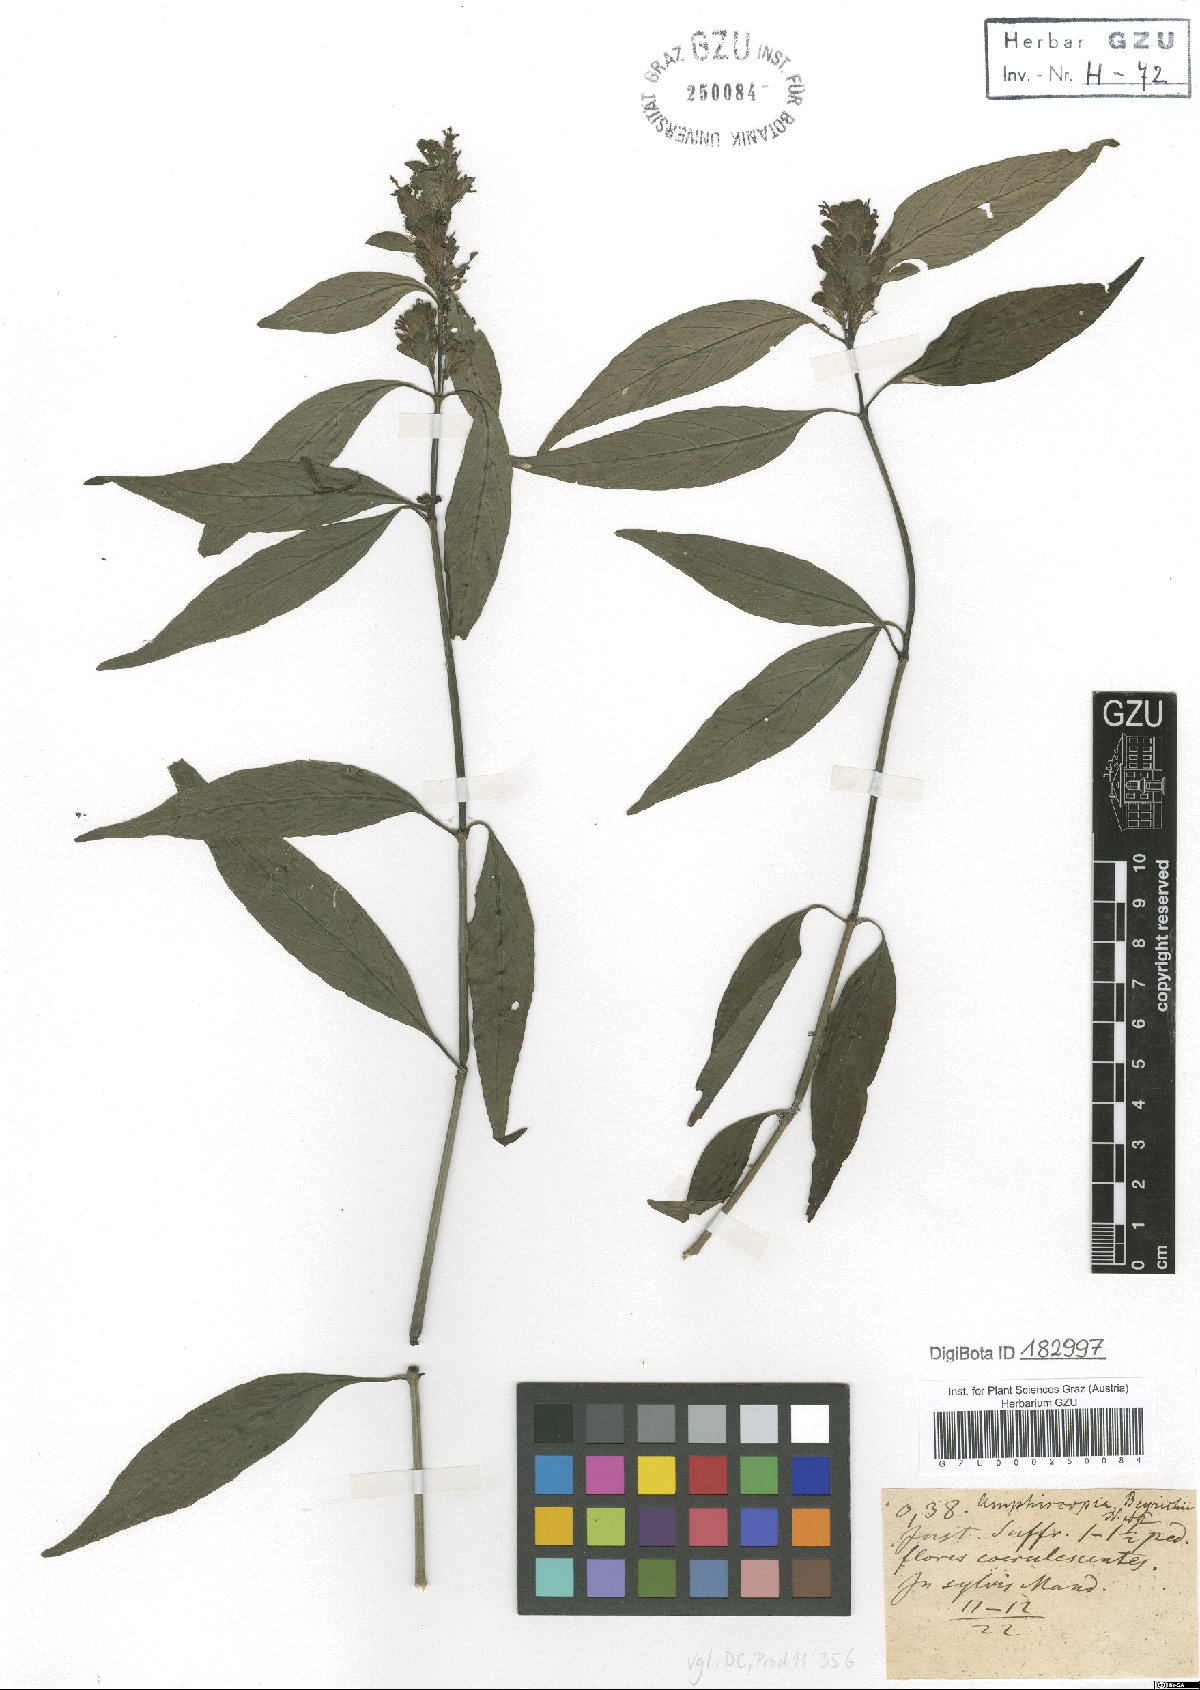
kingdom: Plantae
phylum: Tracheophyta
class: Magnoliopsida
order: Lamiales
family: Acanthaceae
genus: Dianthera
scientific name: Dianthera brasiliensis
